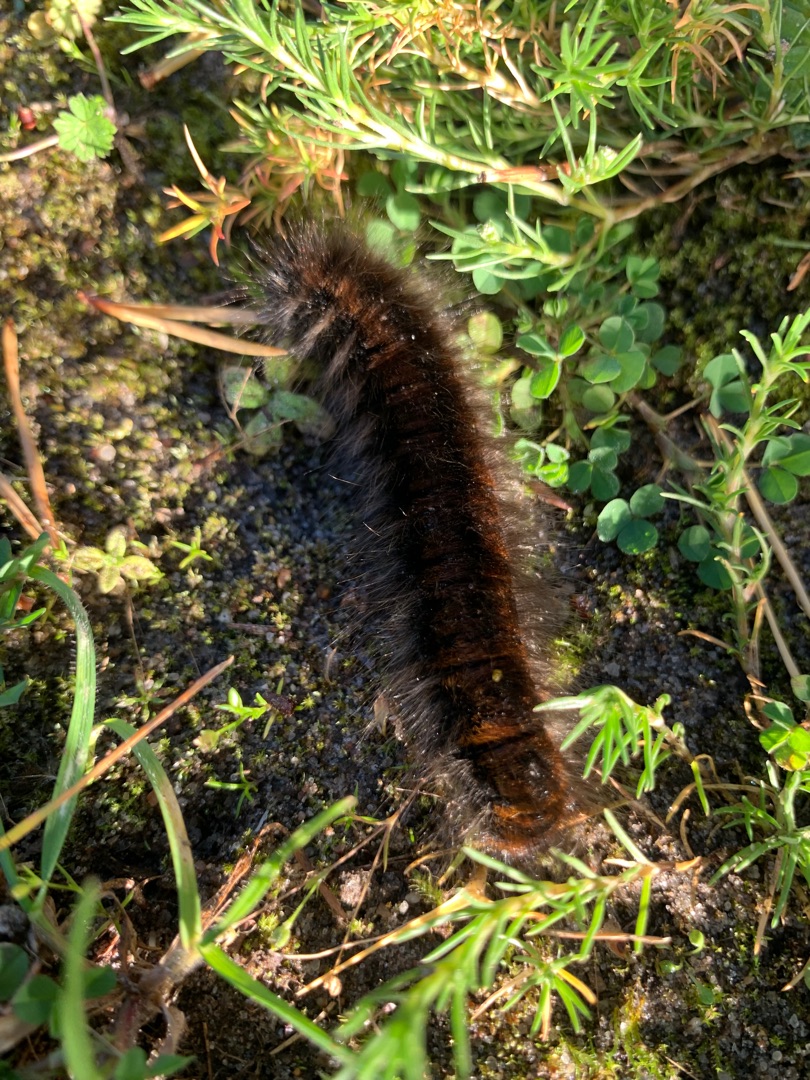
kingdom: Animalia
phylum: Arthropoda
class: Insecta
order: Lepidoptera
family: Lasiocampidae
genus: Macrothylacia
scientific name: Macrothylacia rubi
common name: Brombærspinder
